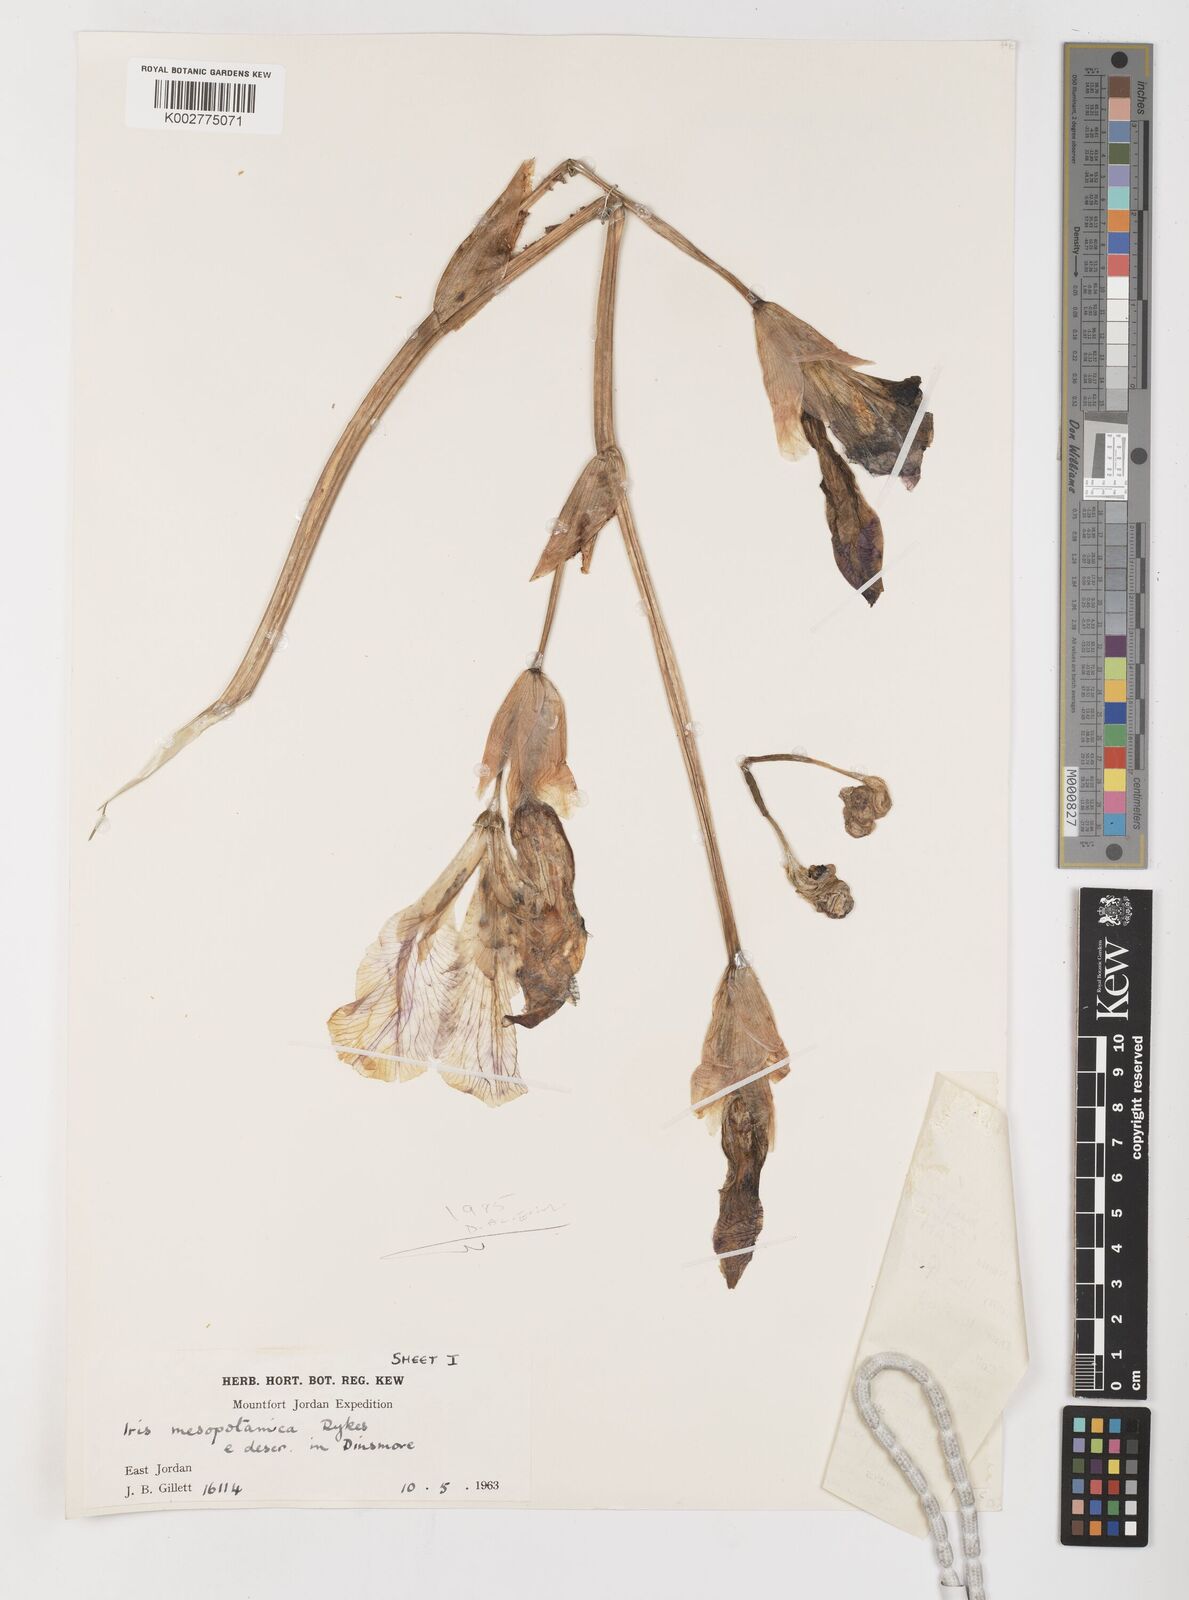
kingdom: Plantae
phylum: Tracheophyta
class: Liliopsida
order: Asparagales
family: Iridaceae
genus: Iris
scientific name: Iris germanica
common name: German iris
